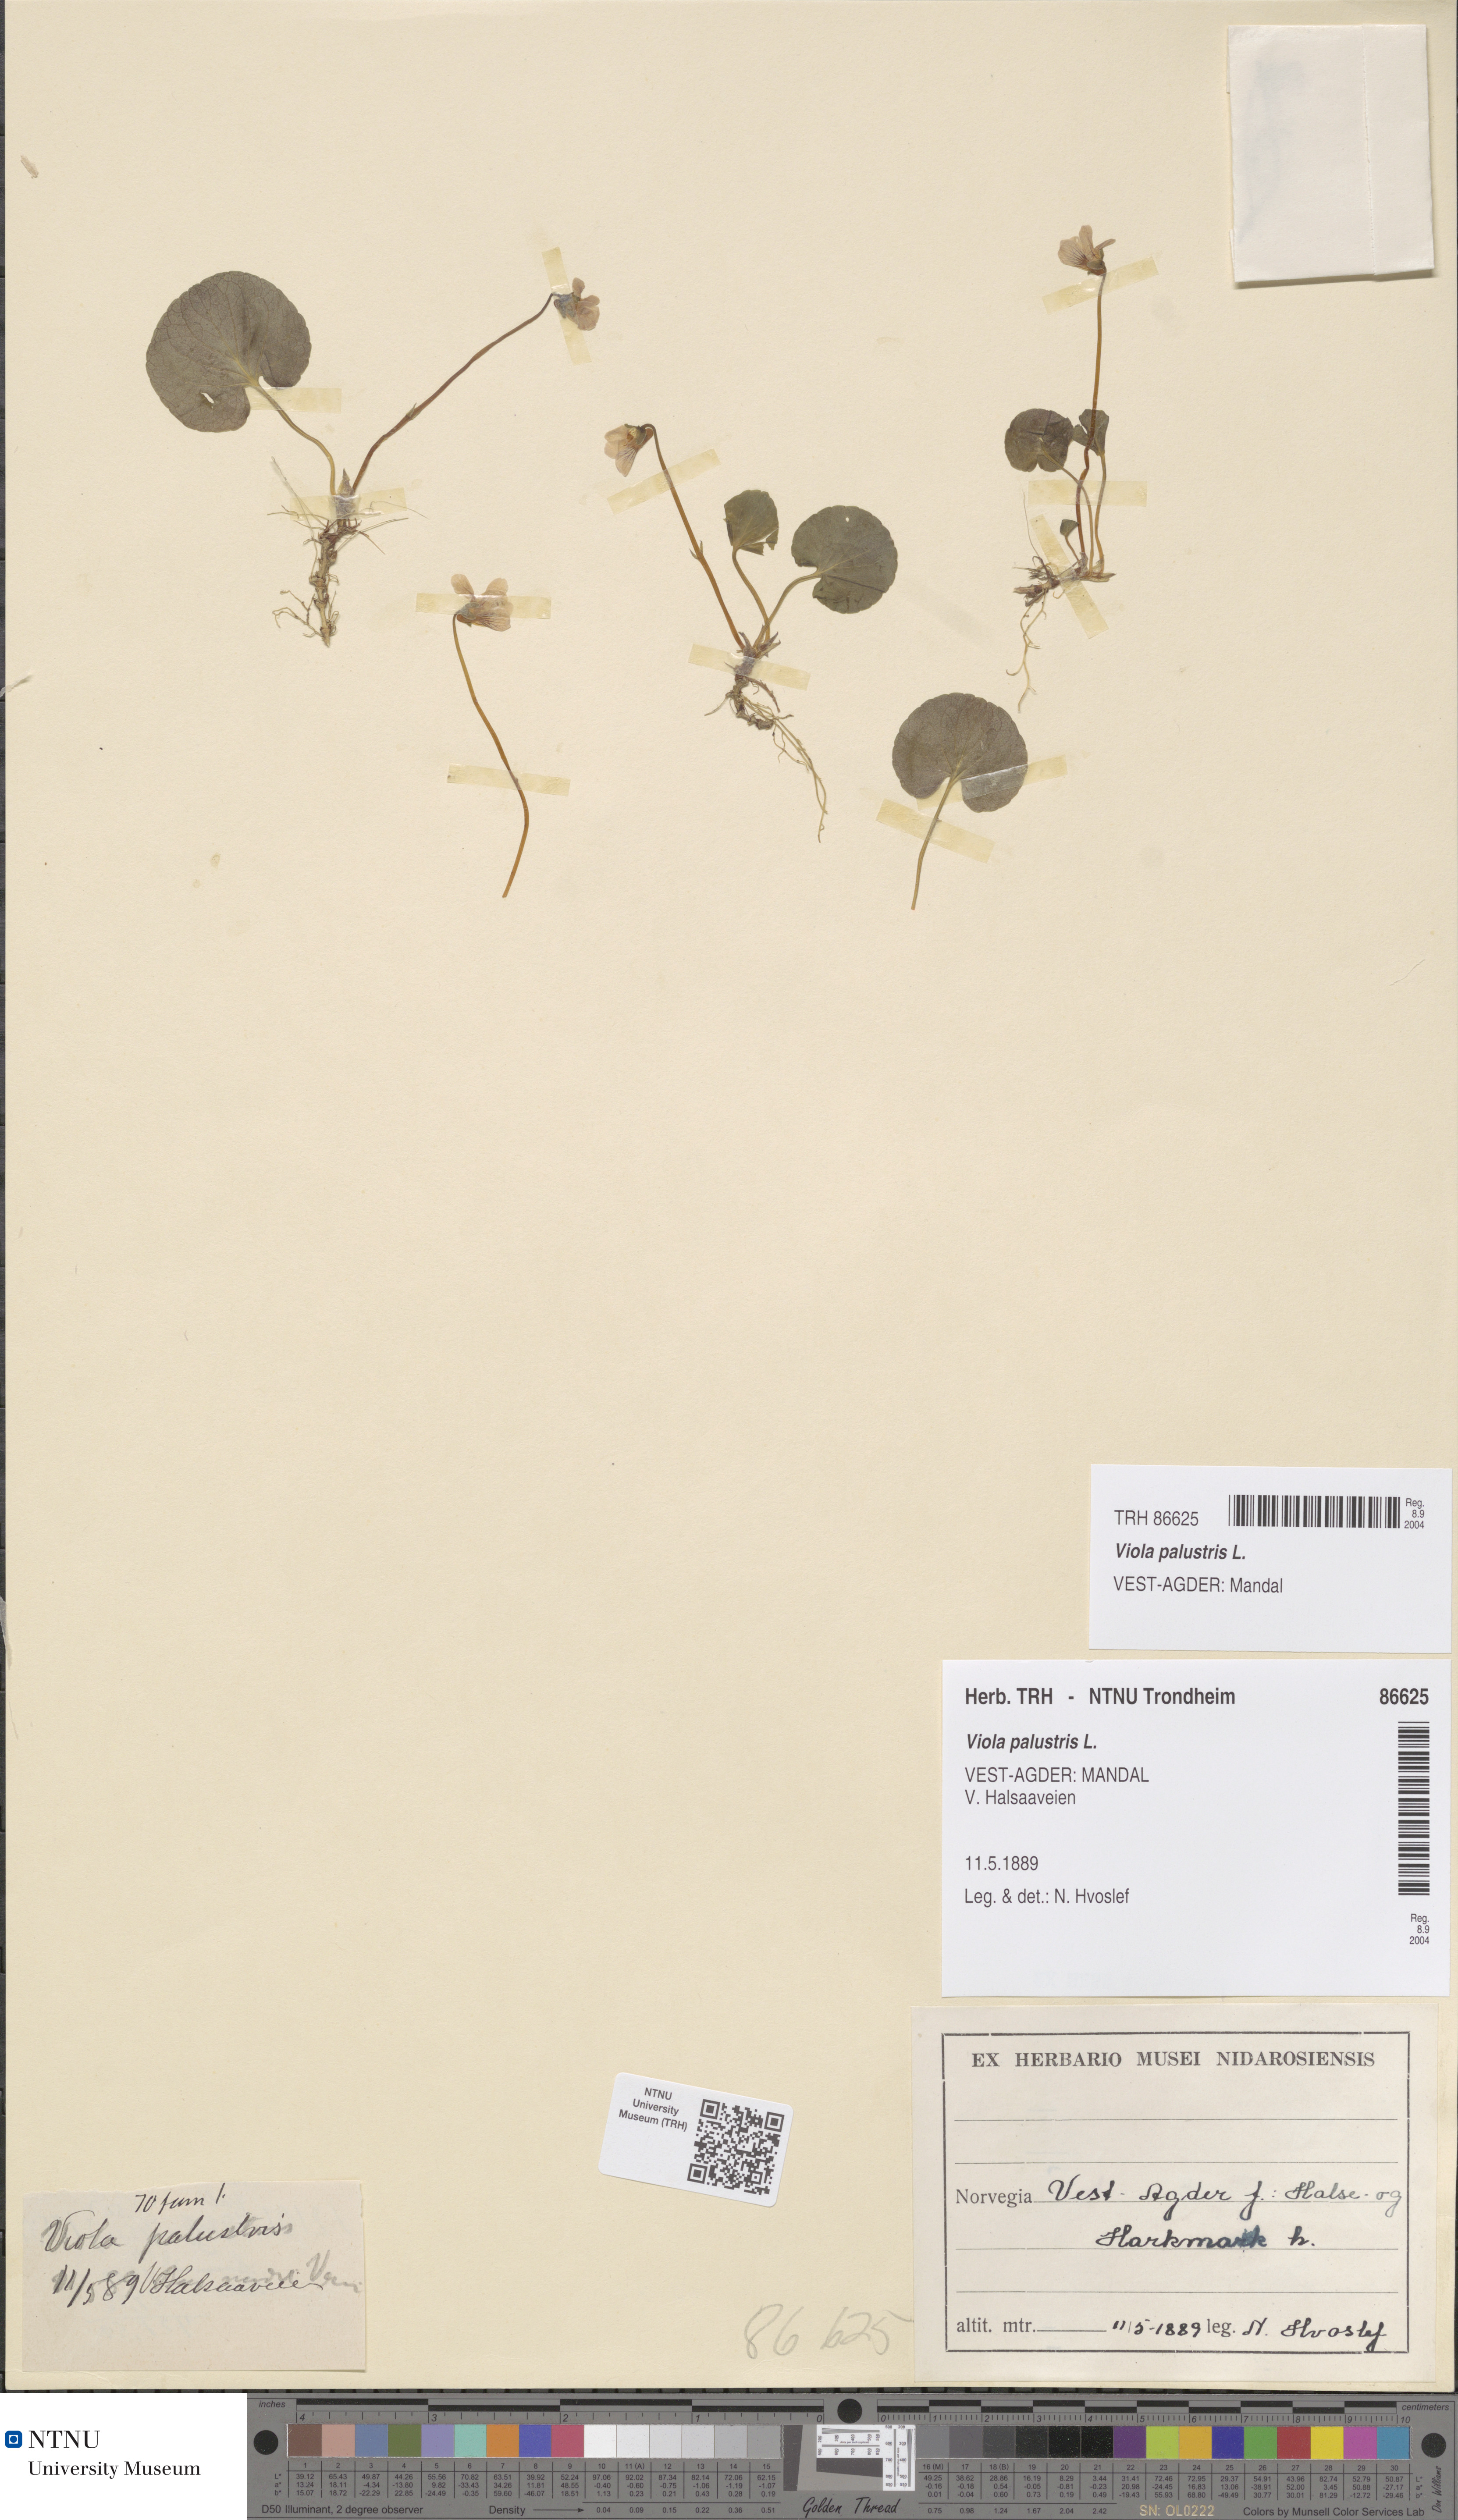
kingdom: Plantae
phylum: Tracheophyta
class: Magnoliopsida
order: Malpighiales
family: Violaceae
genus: Viola
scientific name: Viola palustris
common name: Marsh violet
